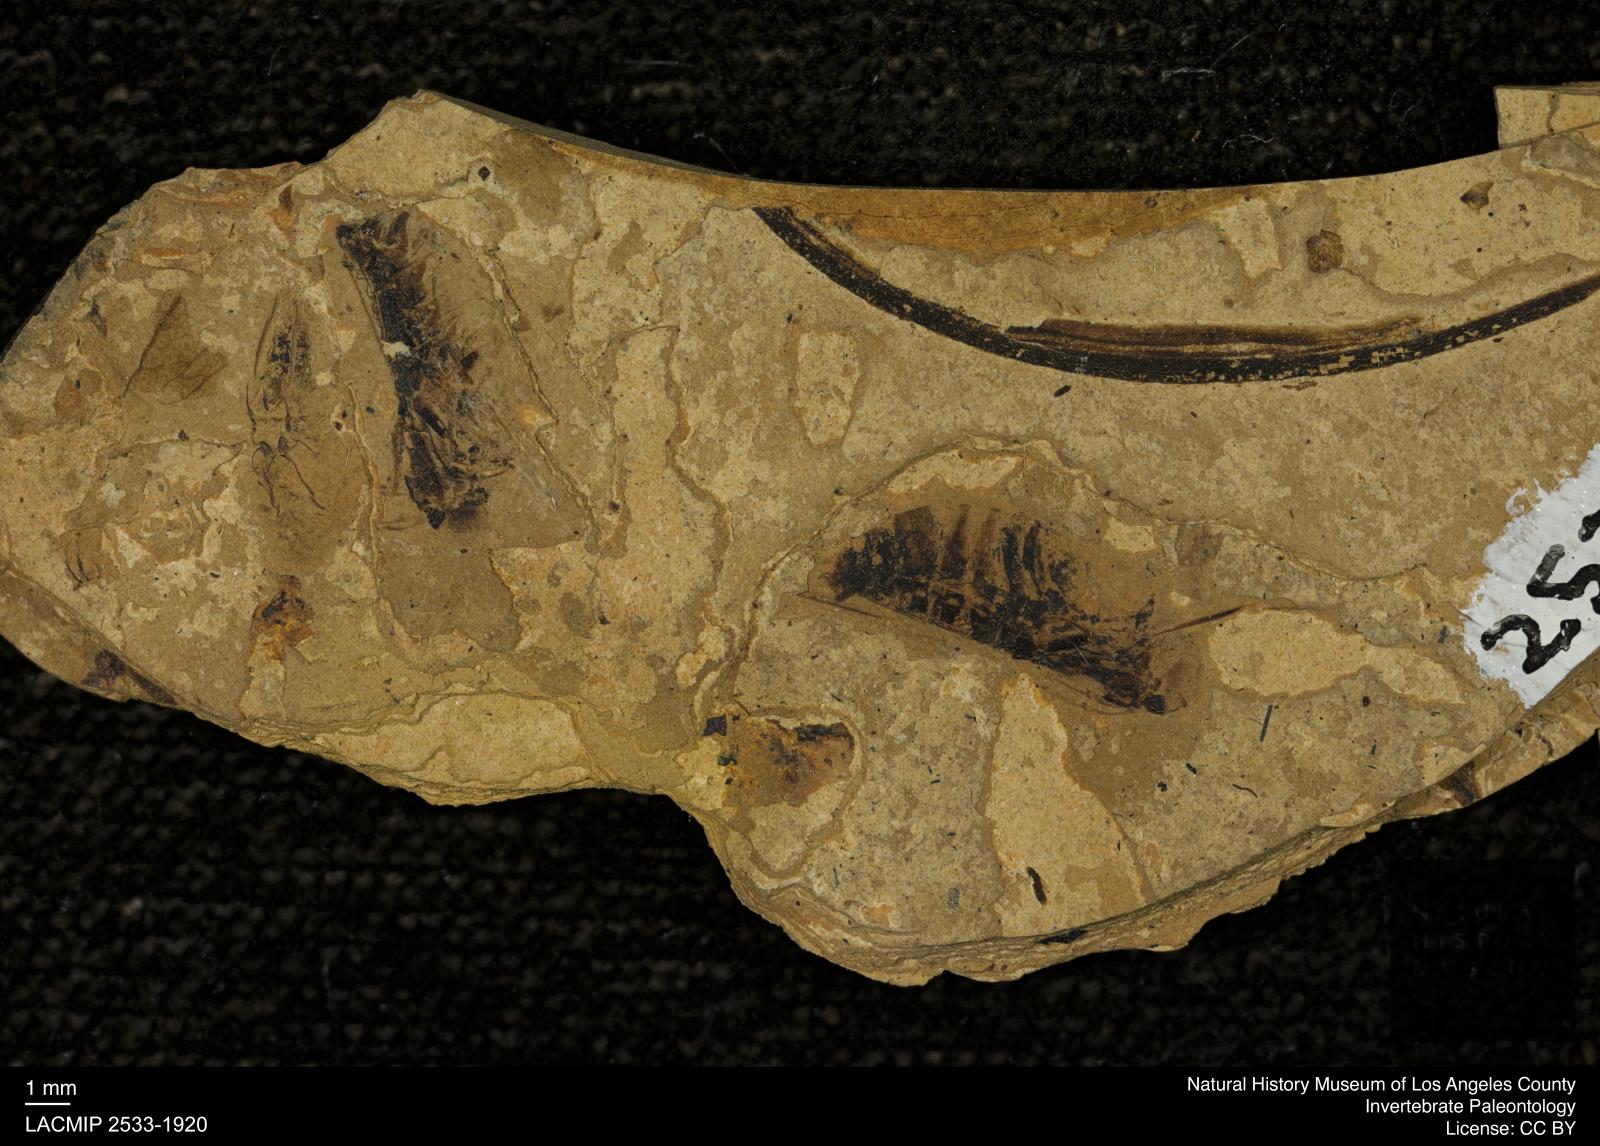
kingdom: Animalia
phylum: Arthropoda
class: Insecta
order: Hemiptera
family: Notonectidae
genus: Notonecta
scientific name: Notonecta
